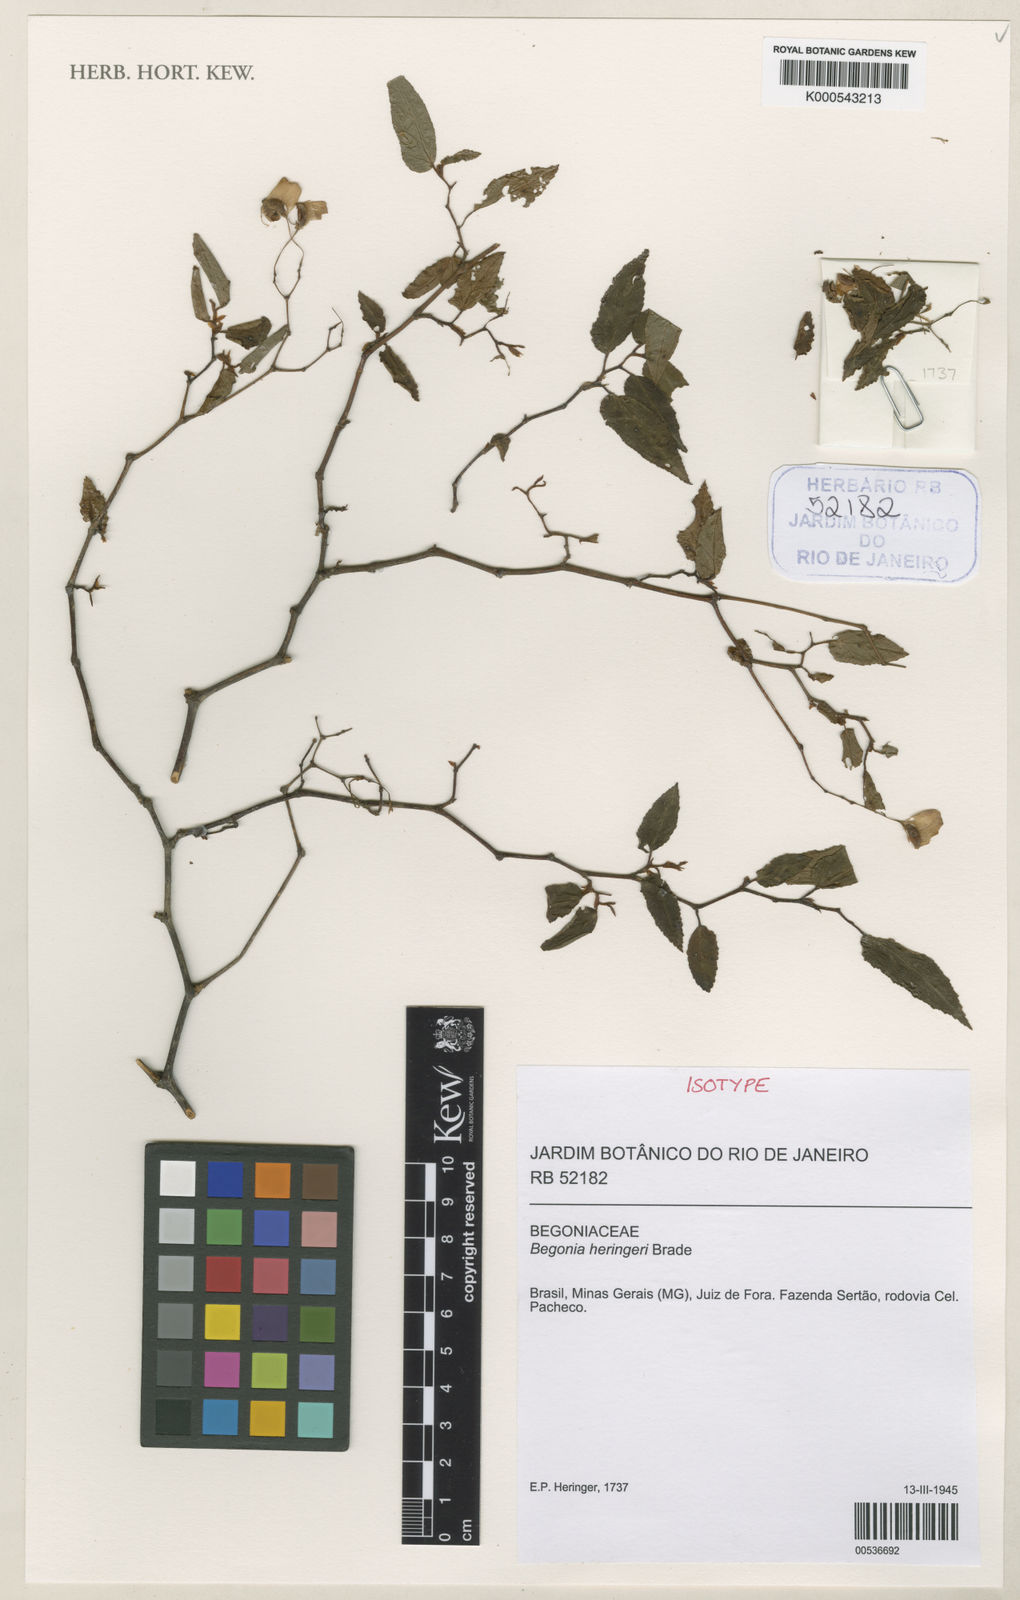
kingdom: Plantae
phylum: Tracheophyta
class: Magnoliopsida
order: Cucurbitales
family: Begoniaceae
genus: Begonia
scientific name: Begonia heringeri
